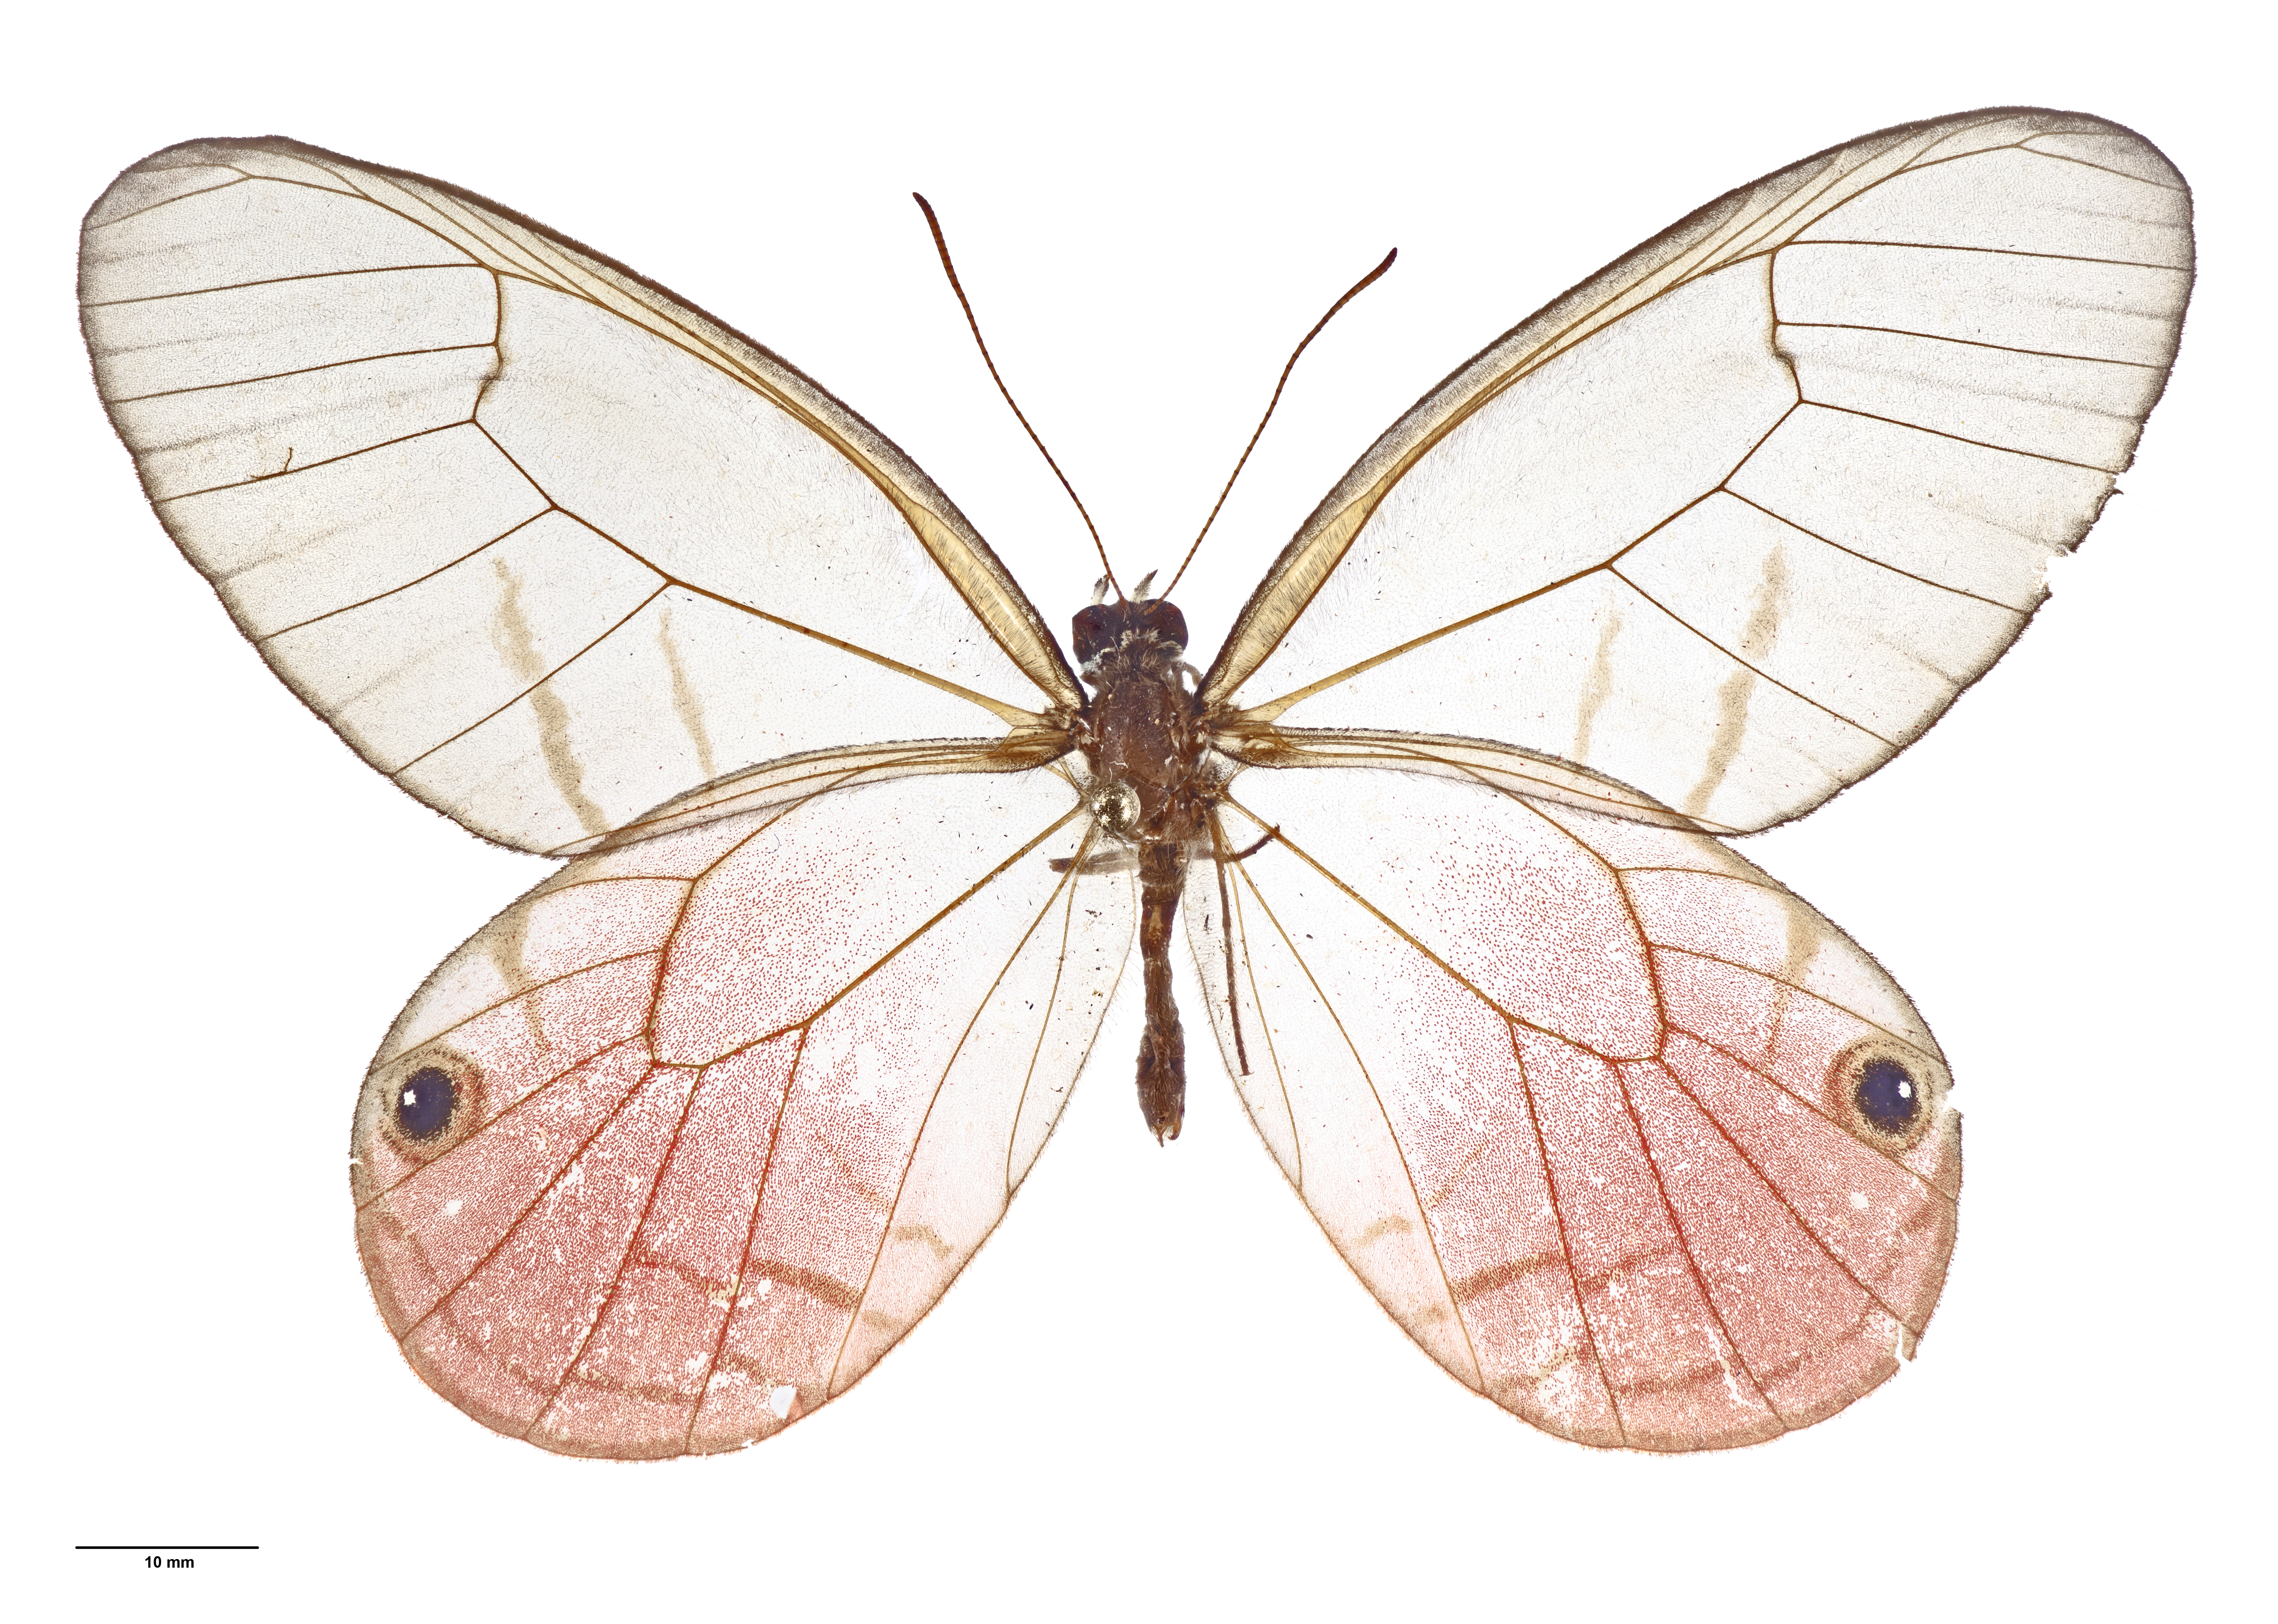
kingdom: Animalia
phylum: Arthropoda
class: Insecta
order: Lepidoptera
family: Nymphalidae
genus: Cithaerias
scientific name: Cithaerias pireta
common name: Rusted clearwing-satyr
